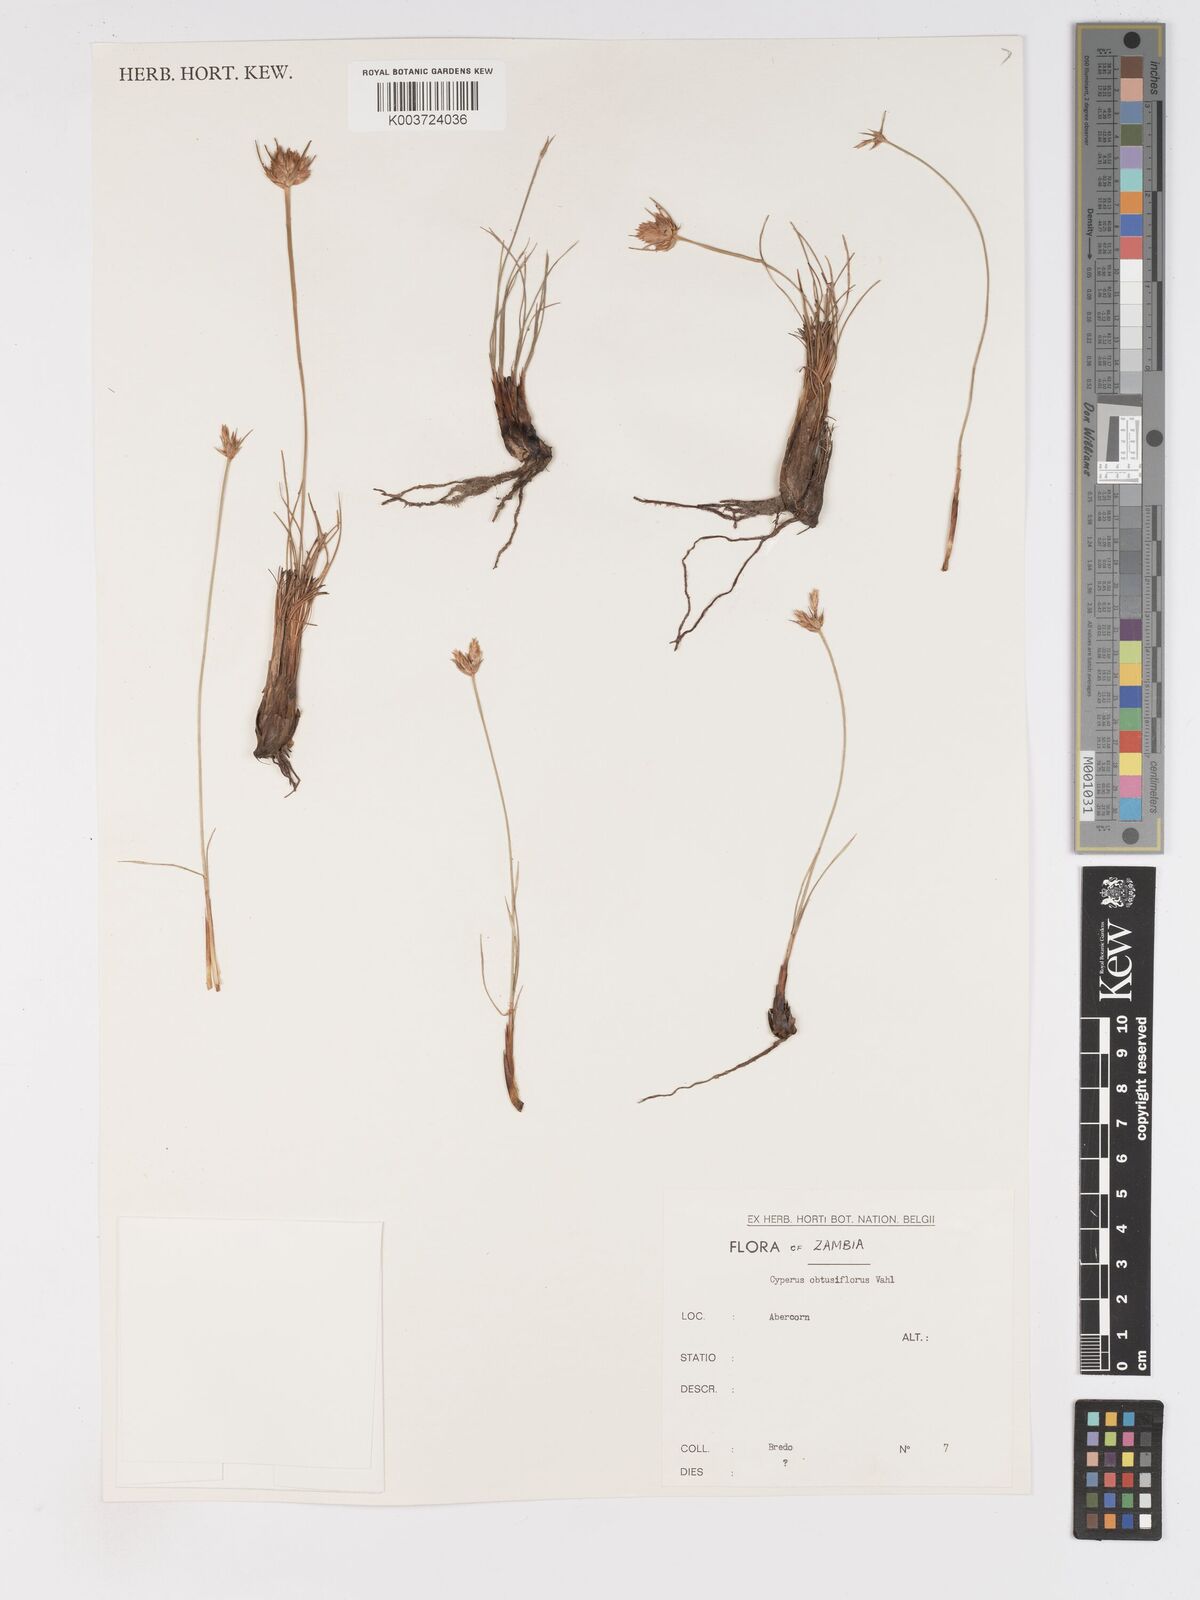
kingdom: Plantae
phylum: Tracheophyta
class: Liliopsida
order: Poales
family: Cyperaceae
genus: Cyperus
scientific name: Cyperus niveus
